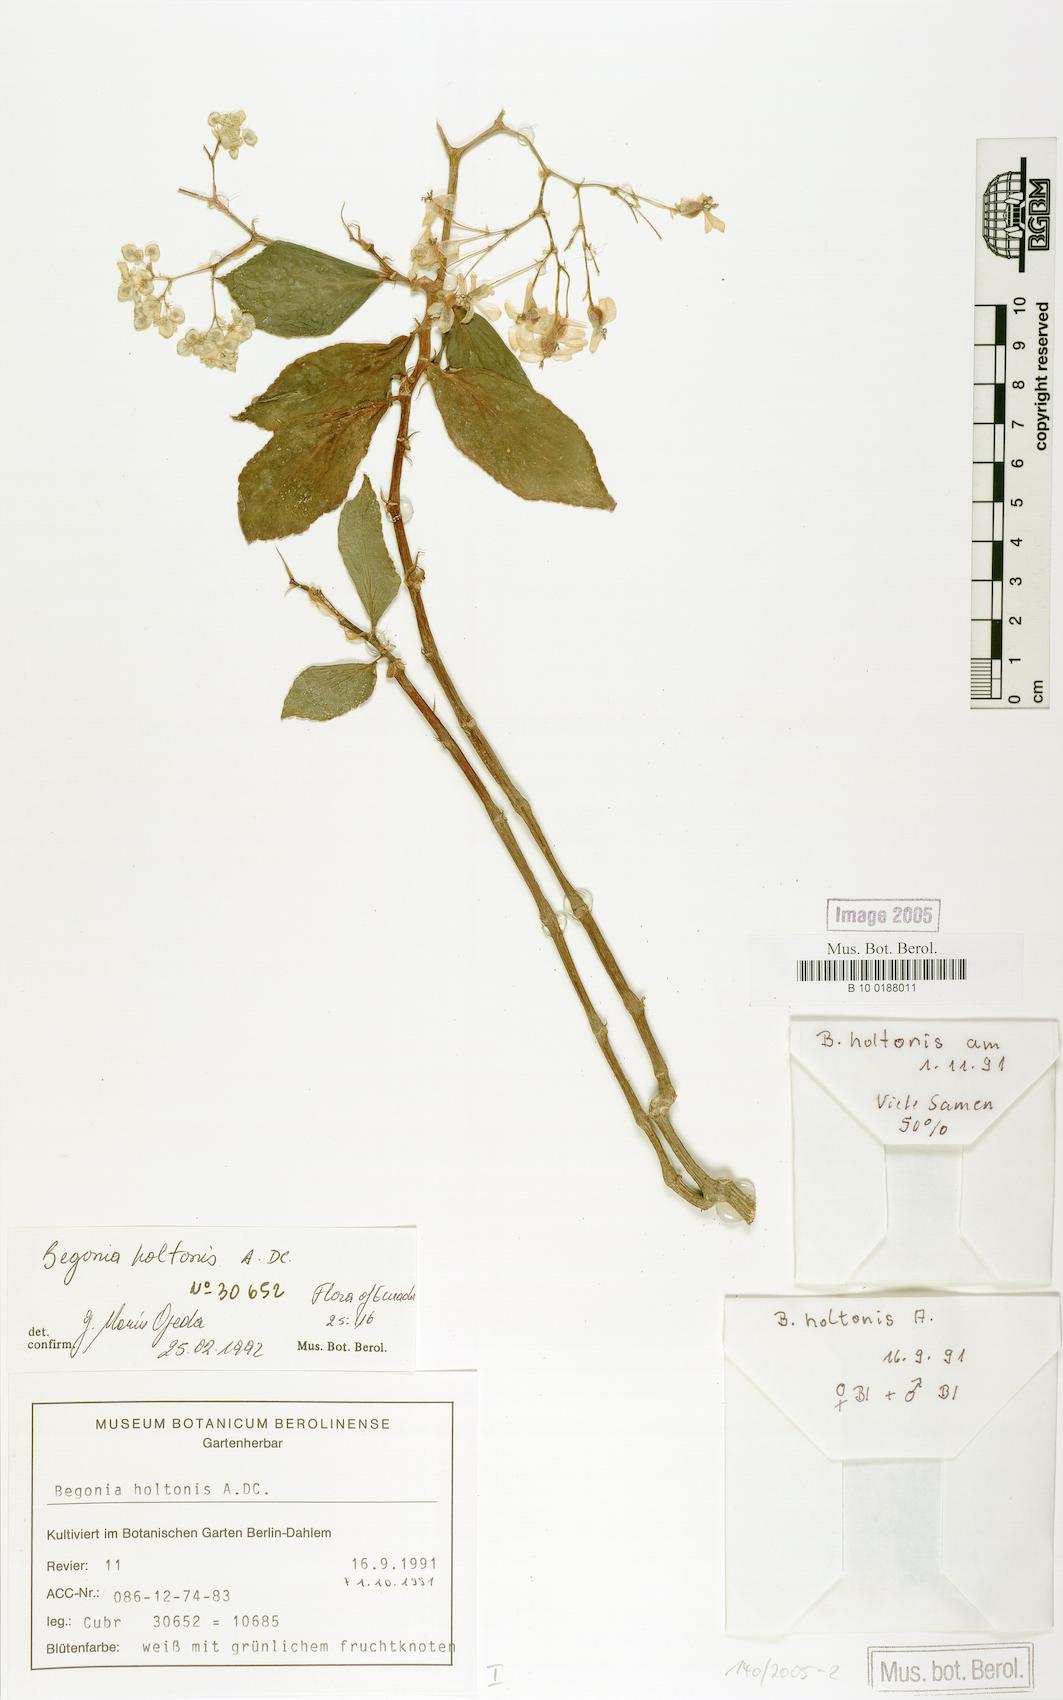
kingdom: Plantae
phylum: Tracheophyta
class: Magnoliopsida
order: Cucurbitales
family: Begoniaceae
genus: Begonia
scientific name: Begonia holtonis
